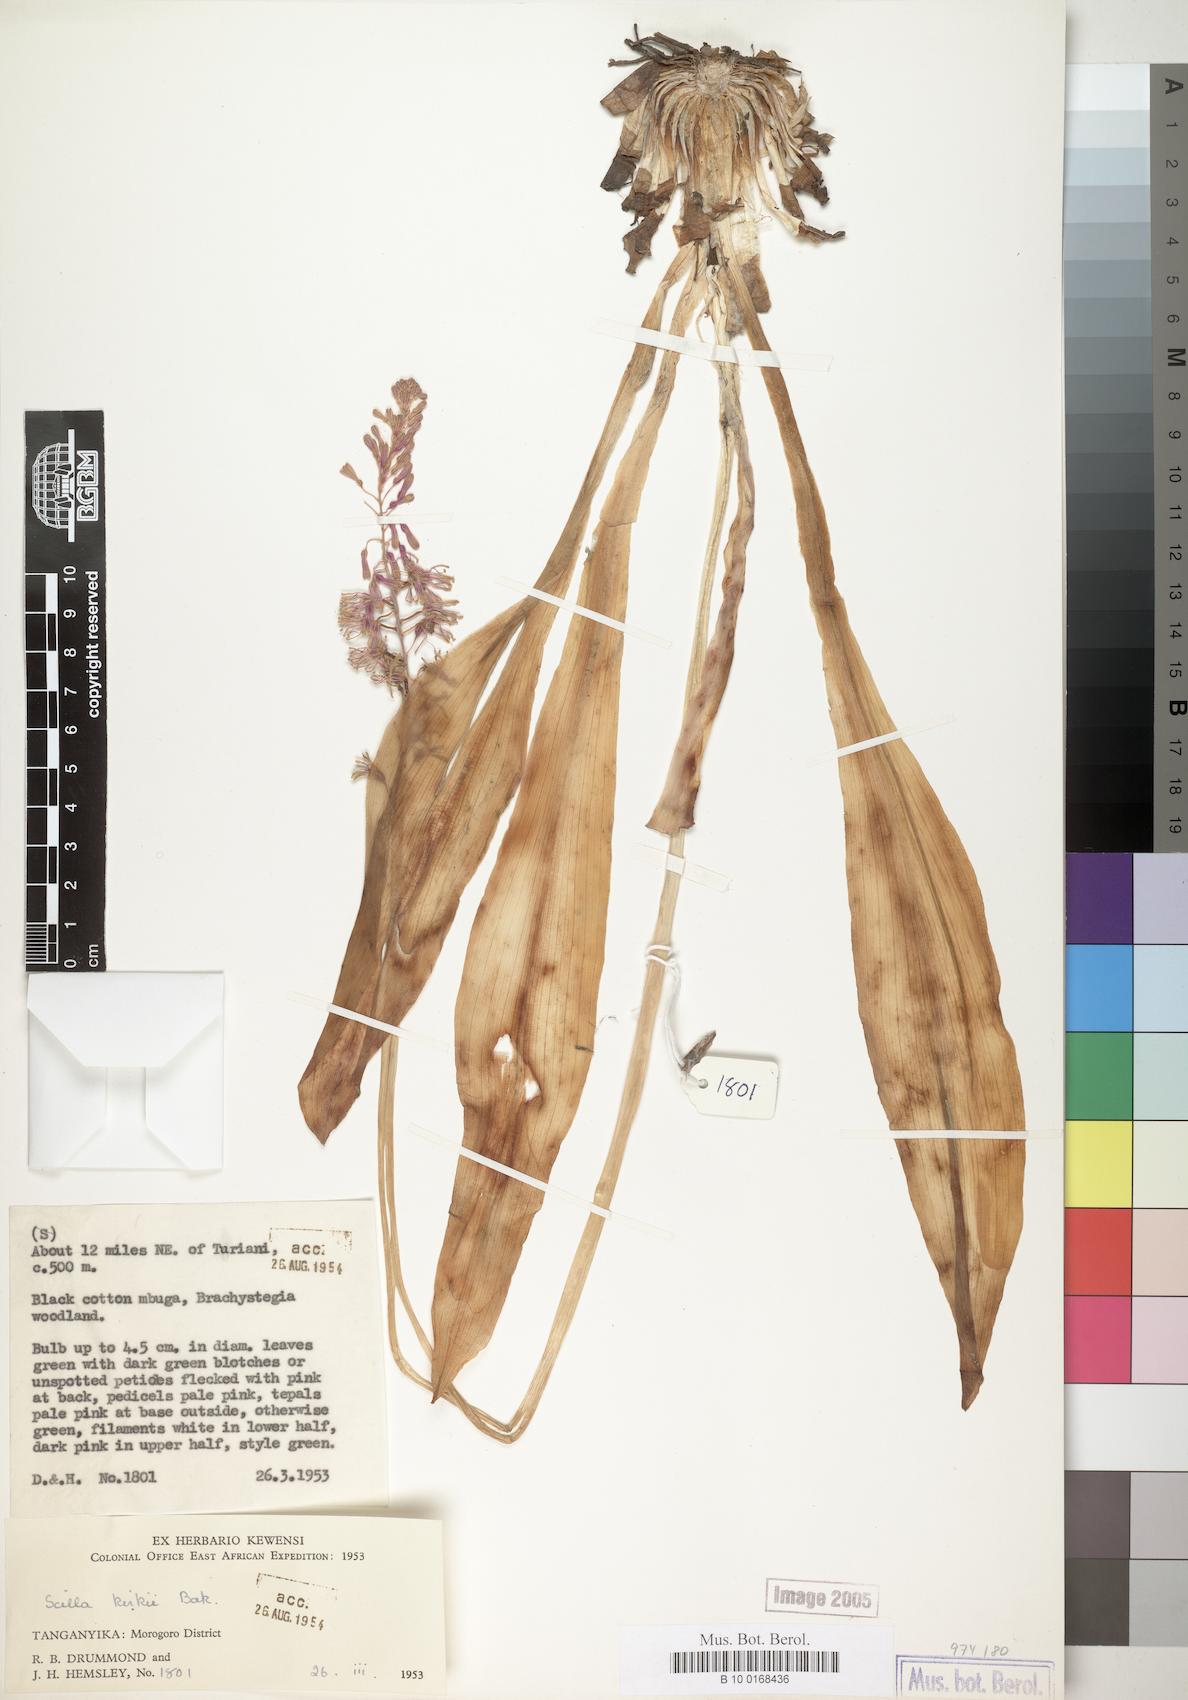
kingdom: Plantae
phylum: Tracheophyta
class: Liliopsida
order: Asparagales
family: Asparagaceae
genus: Ledebouria
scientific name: Ledebouria kirkii
